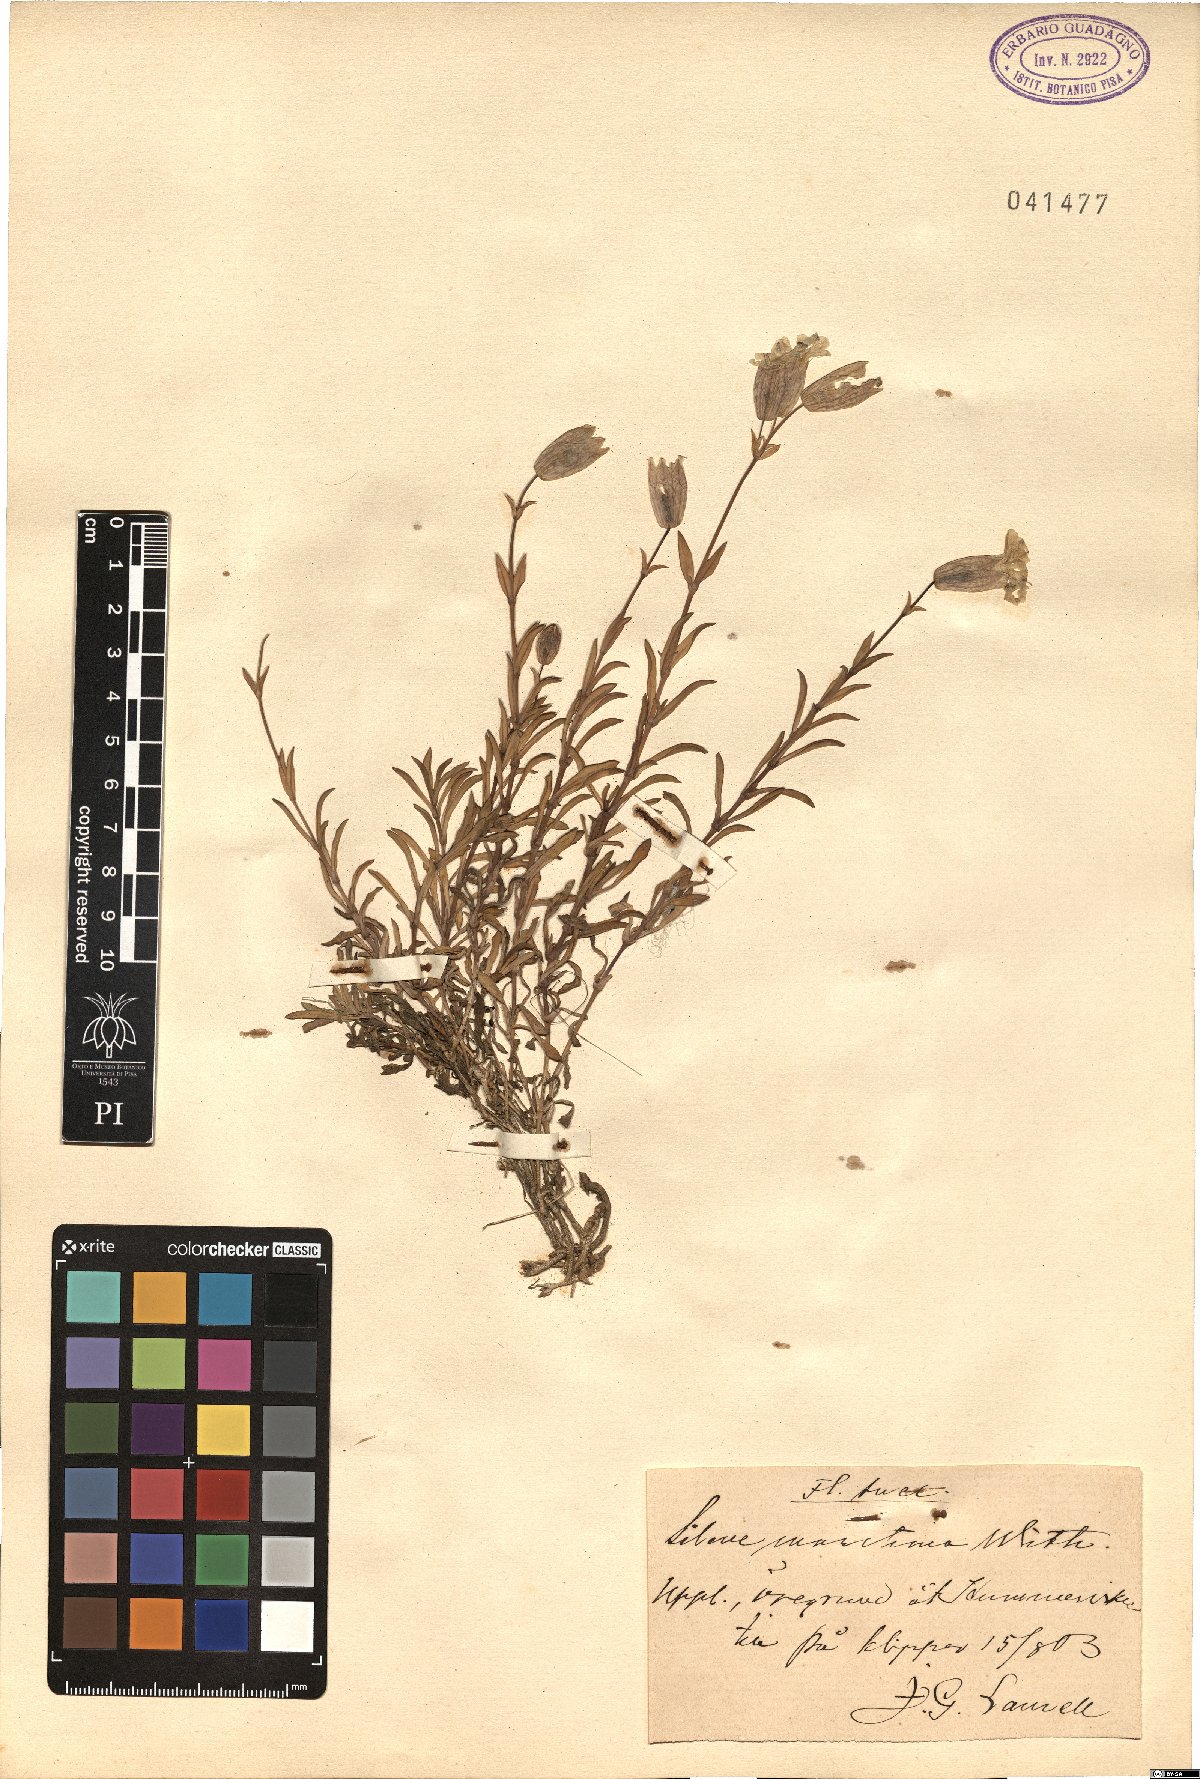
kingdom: Plantae
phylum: Tracheophyta
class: Magnoliopsida
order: Caryophyllales
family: Caryophyllaceae
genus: Silene
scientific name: Silene uniflora
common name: Sea campion
